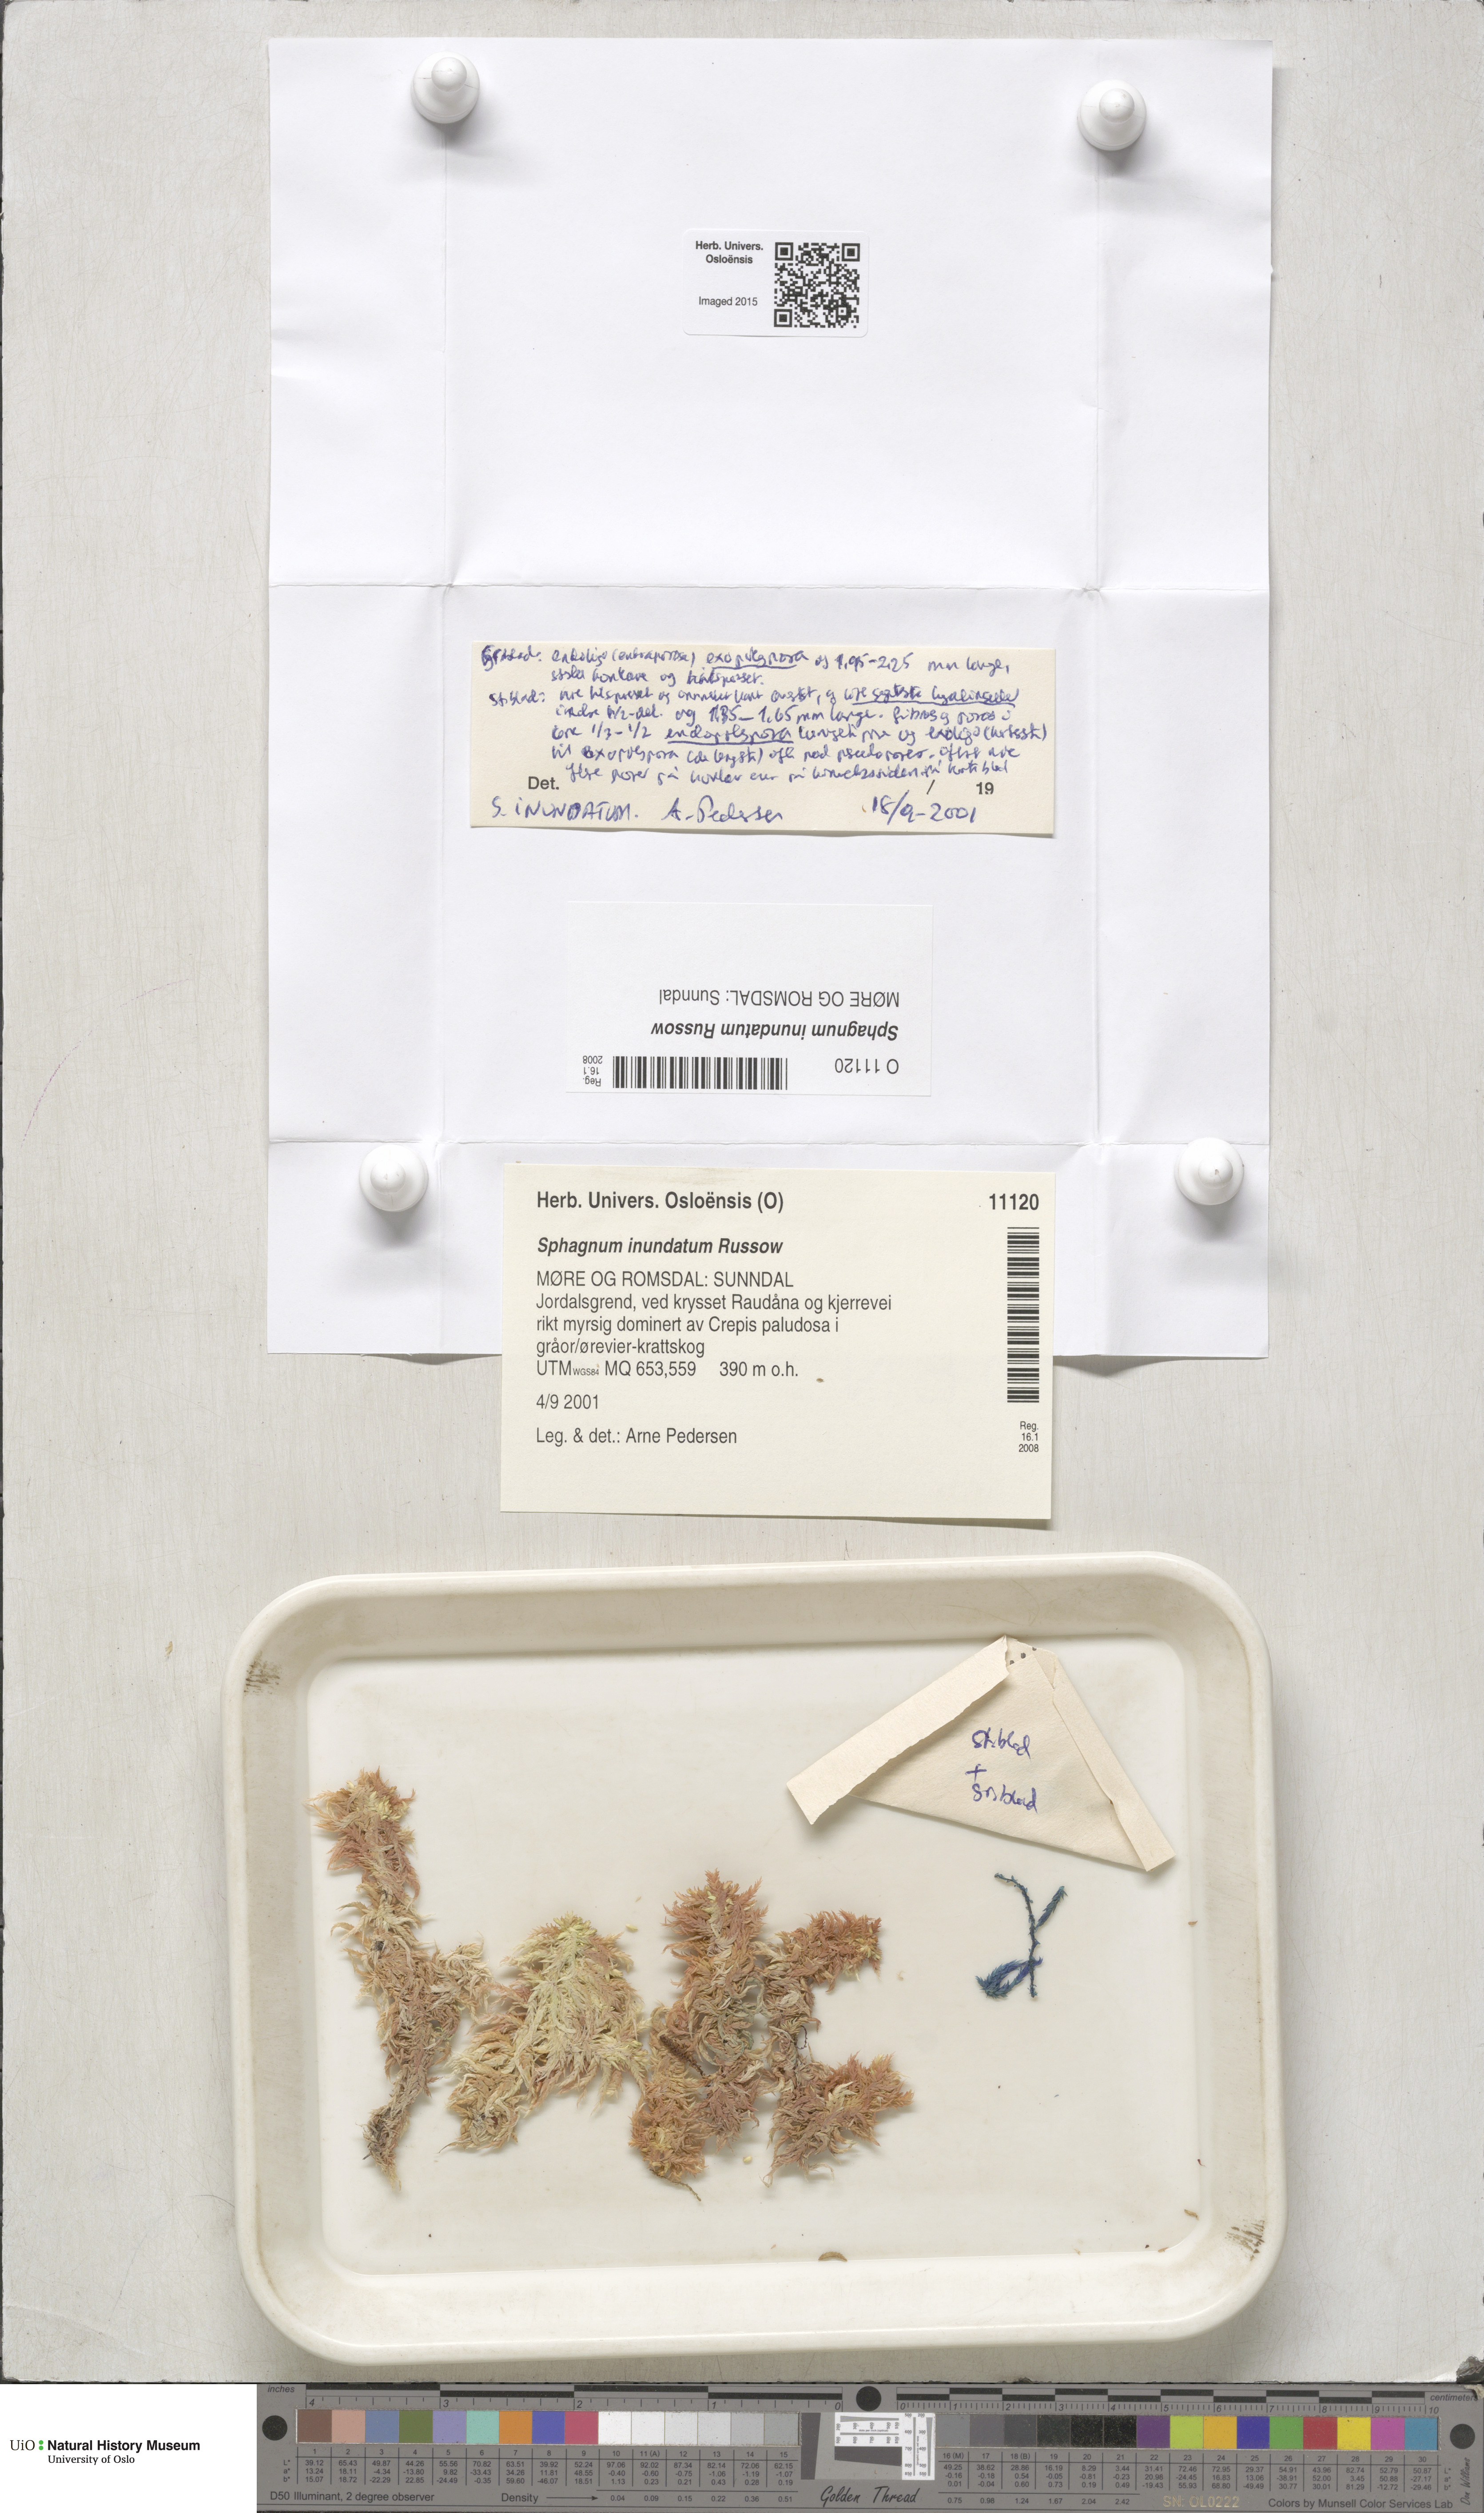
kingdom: Plantae
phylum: Bryophyta
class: Sphagnopsida
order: Sphagnales
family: Sphagnaceae
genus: Sphagnum
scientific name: Sphagnum inundatum
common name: Lesser cow-horn bog-moss
